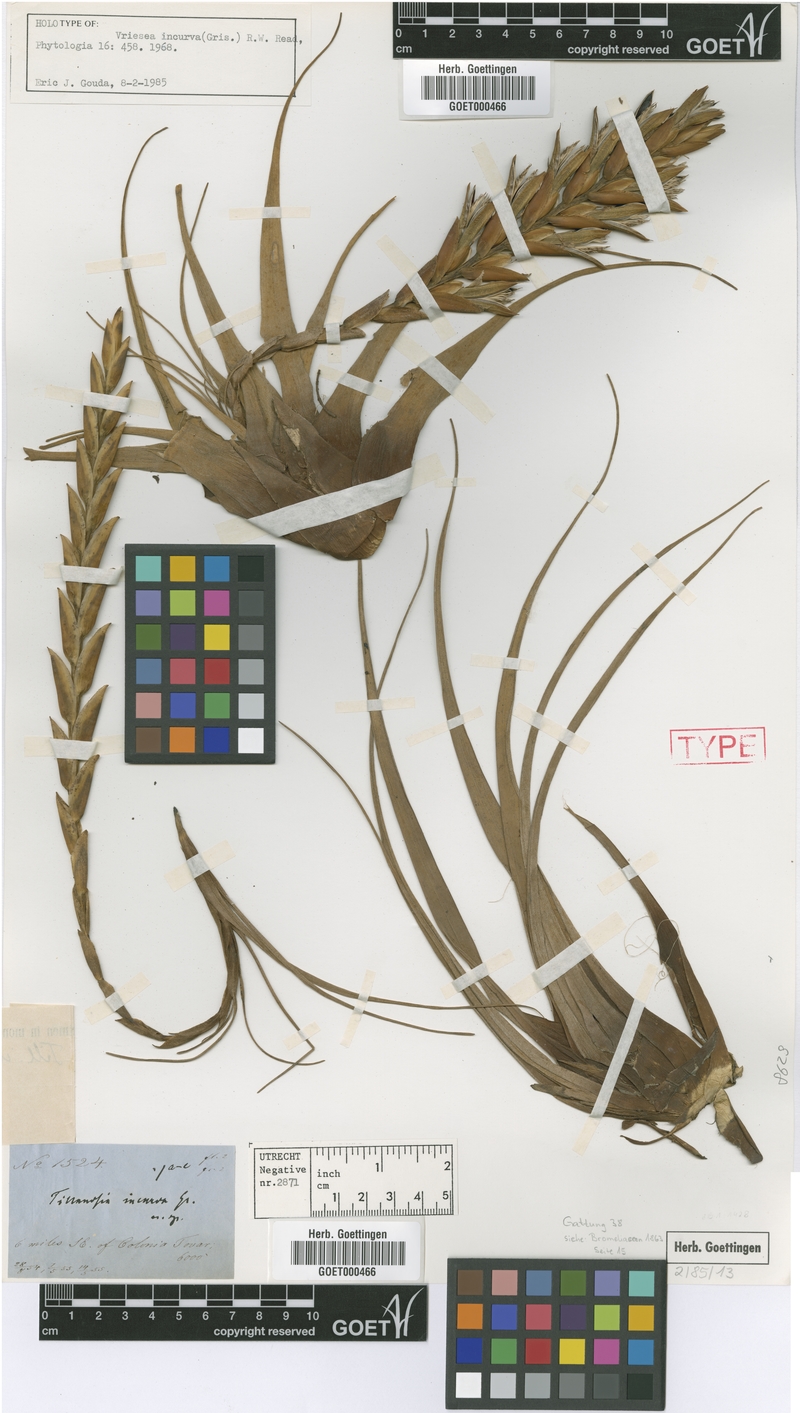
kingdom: Plantae
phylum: Tracheophyta
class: Liliopsida
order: Poales
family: Bromeliaceae
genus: Vriesea
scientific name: Vriesea incurva
